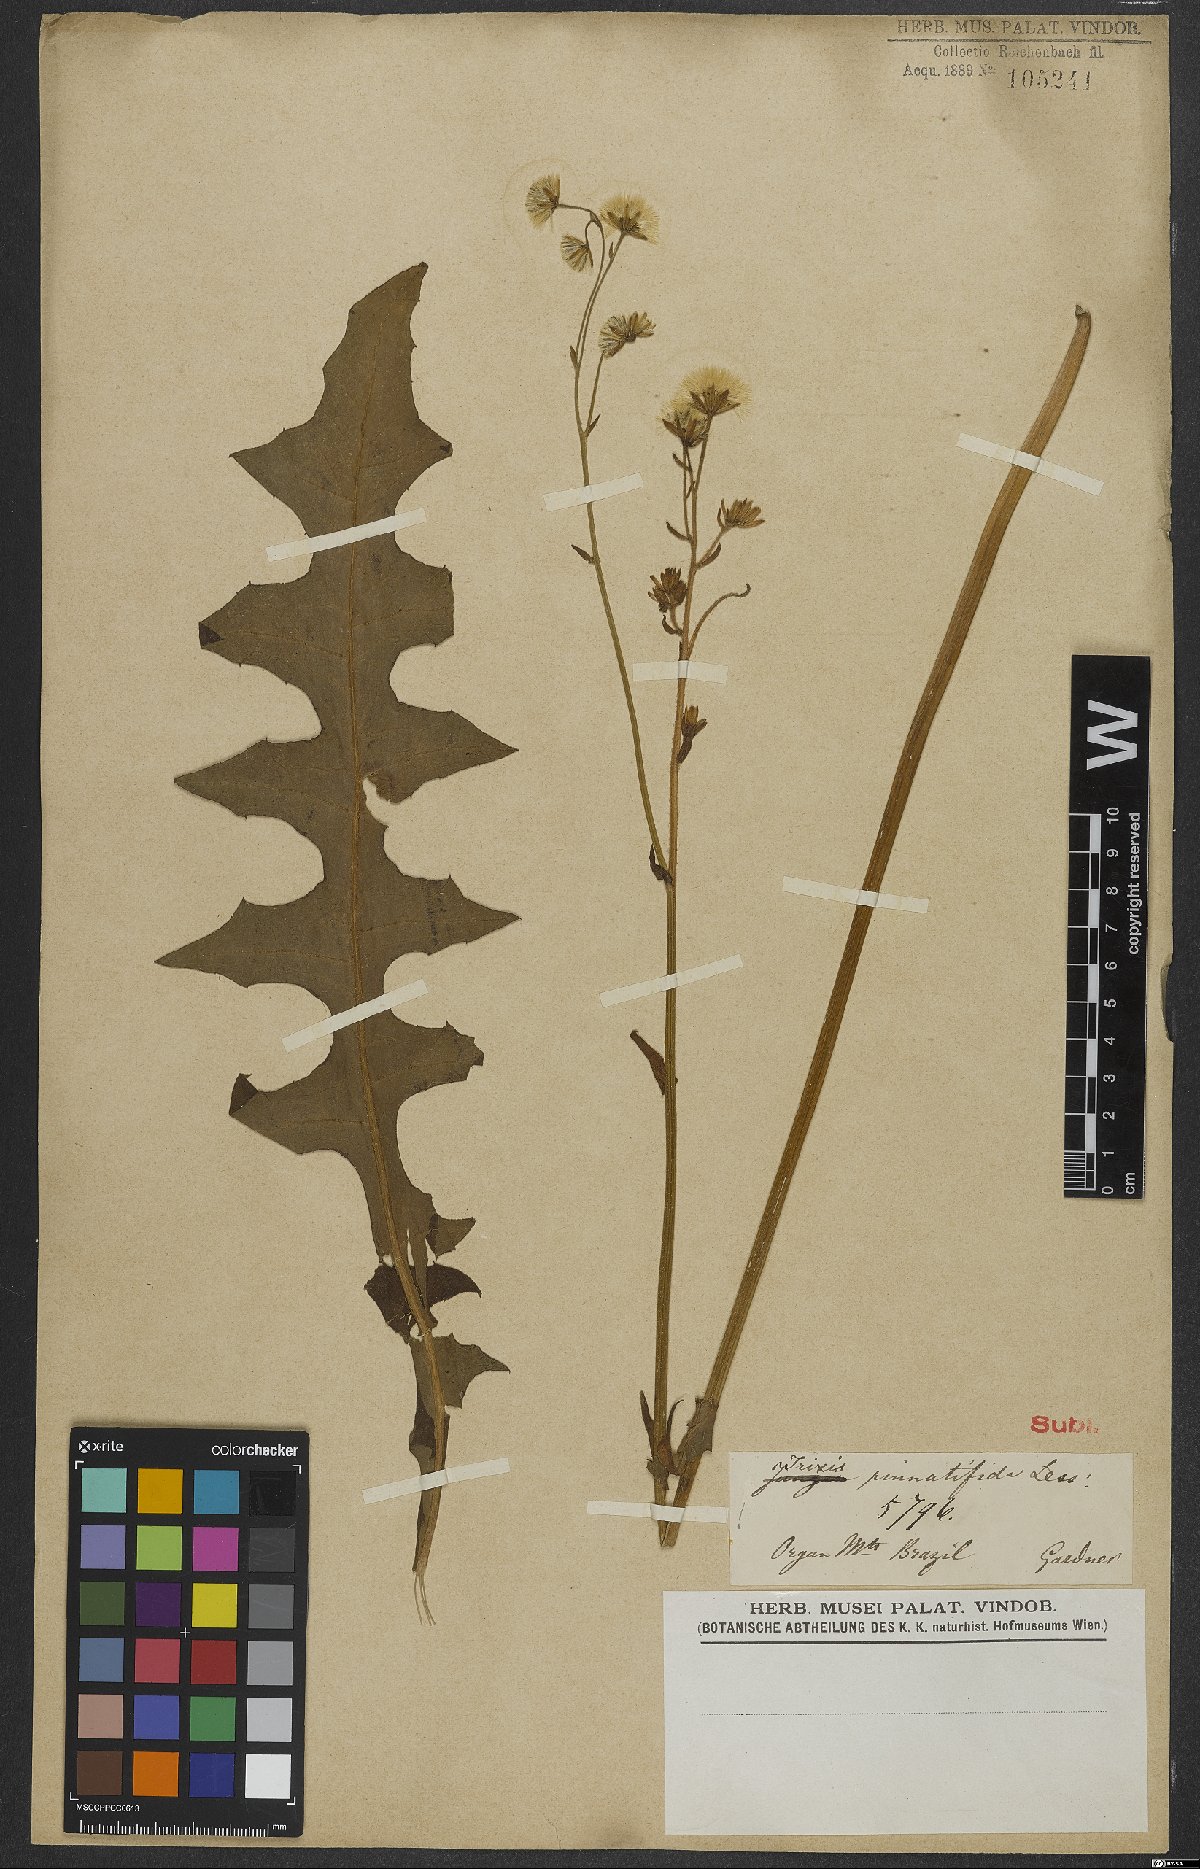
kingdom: Plantae
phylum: Tracheophyta
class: Magnoliopsida
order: Asterales
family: Asteraceae
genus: Holocheilus
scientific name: Holocheilus pinnatifidus
